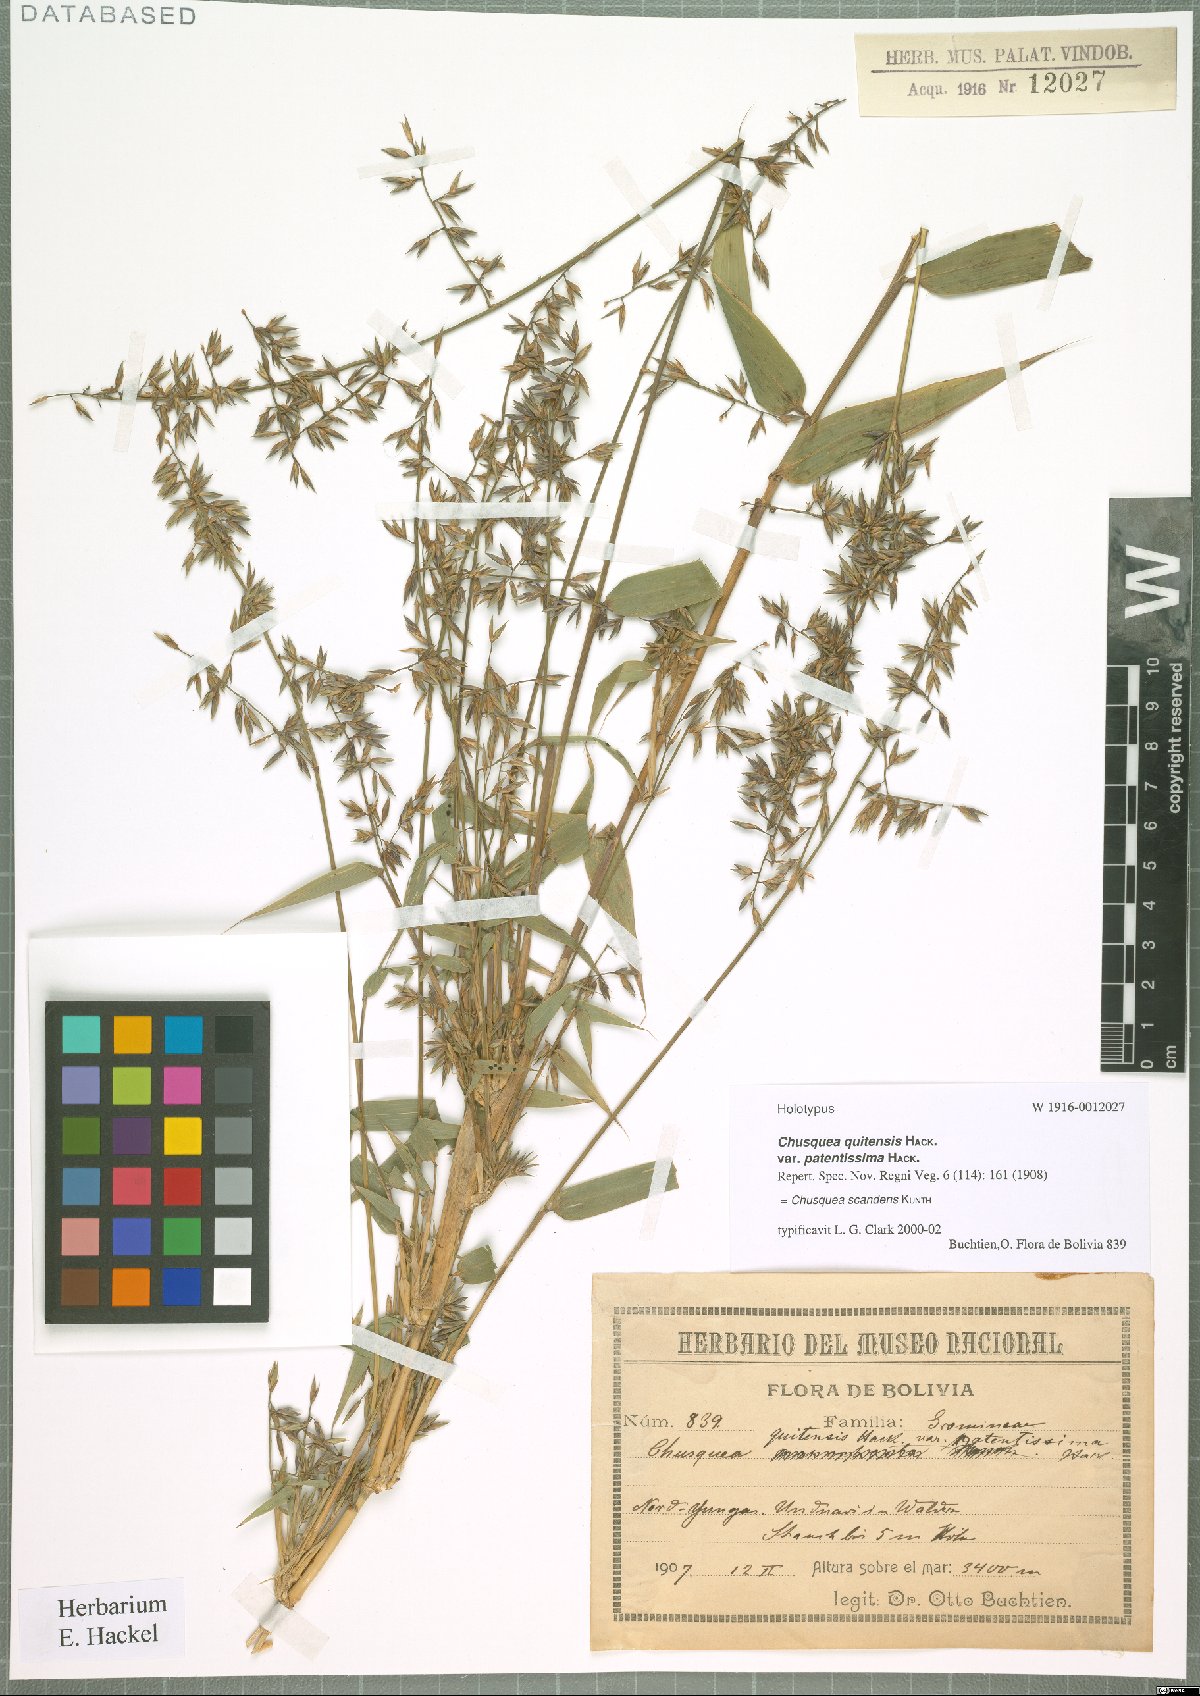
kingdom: Plantae
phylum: Tracheophyta
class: Liliopsida
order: Poales
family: Poaceae
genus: Chusquea
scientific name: Chusquea scandens
